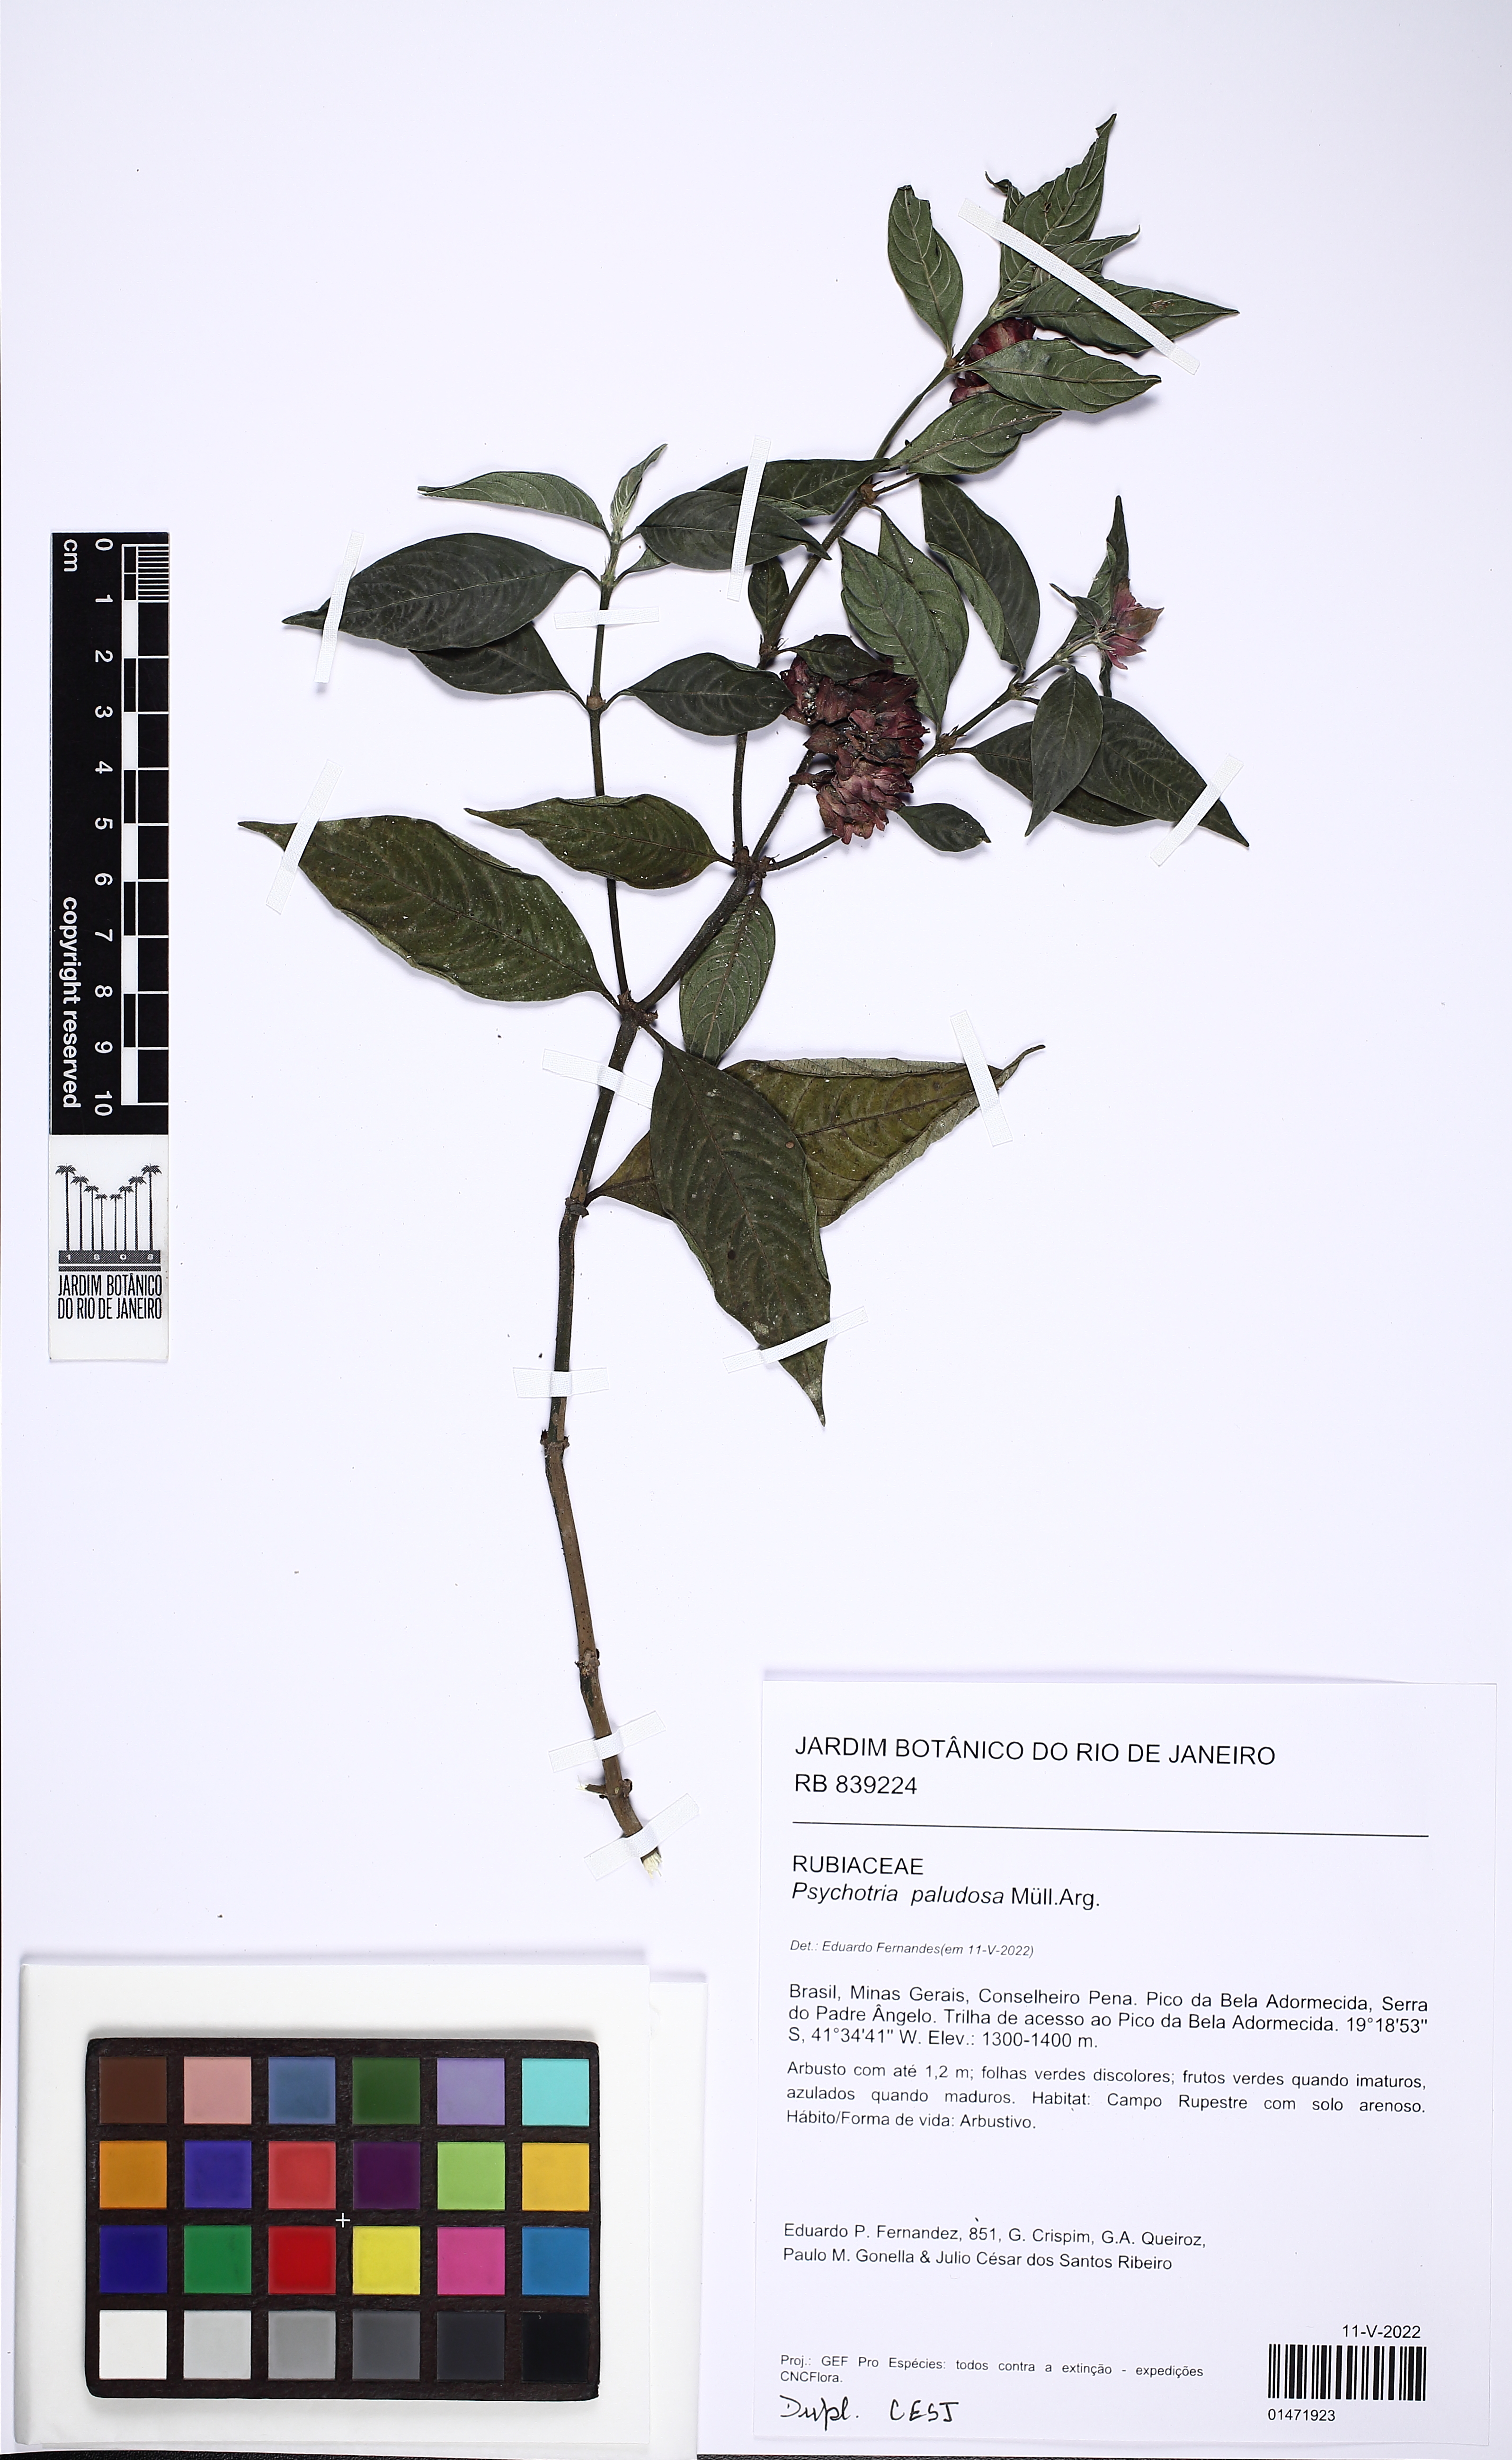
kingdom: Plantae
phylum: Tracheophyta
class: Magnoliopsida
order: Gentianales
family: Rubiaceae
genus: Psychotria
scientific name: Psychotria paludosa
